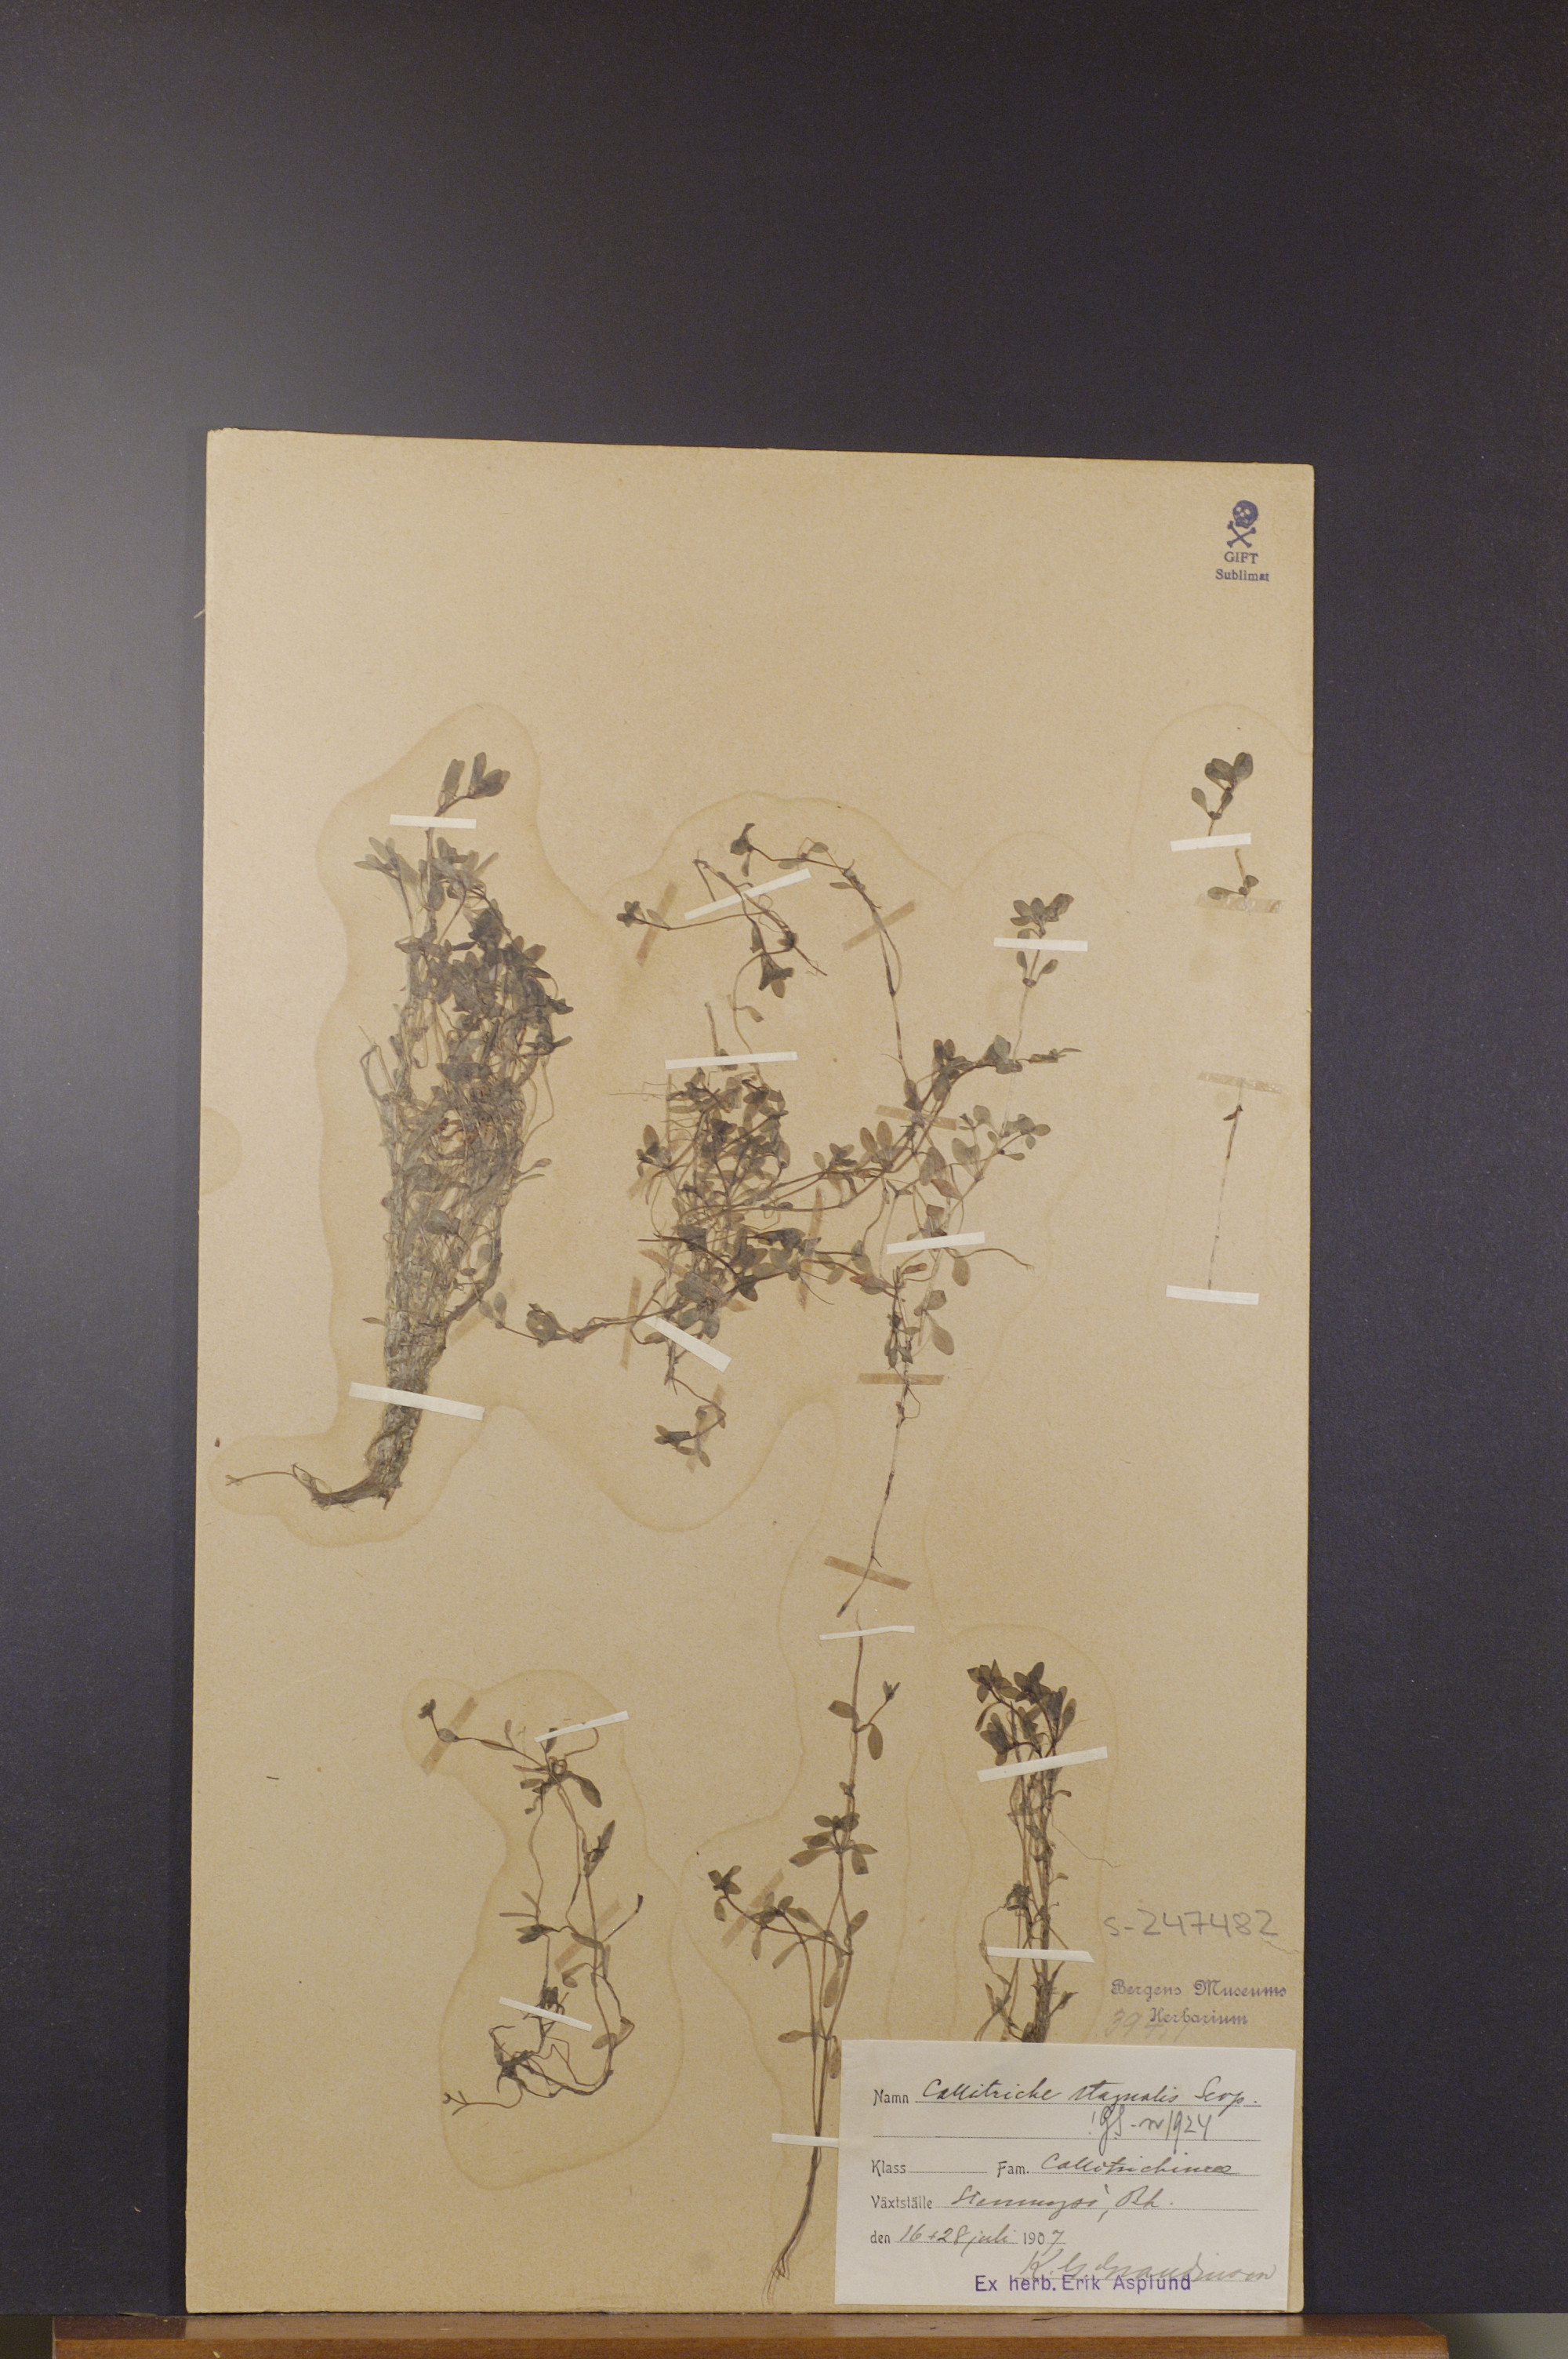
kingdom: Plantae
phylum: Tracheophyta
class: Magnoliopsida
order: Lamiales
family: Plantaginaceae
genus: Callitriche
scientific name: Callitriche stagnalis
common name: Common water-starwort
